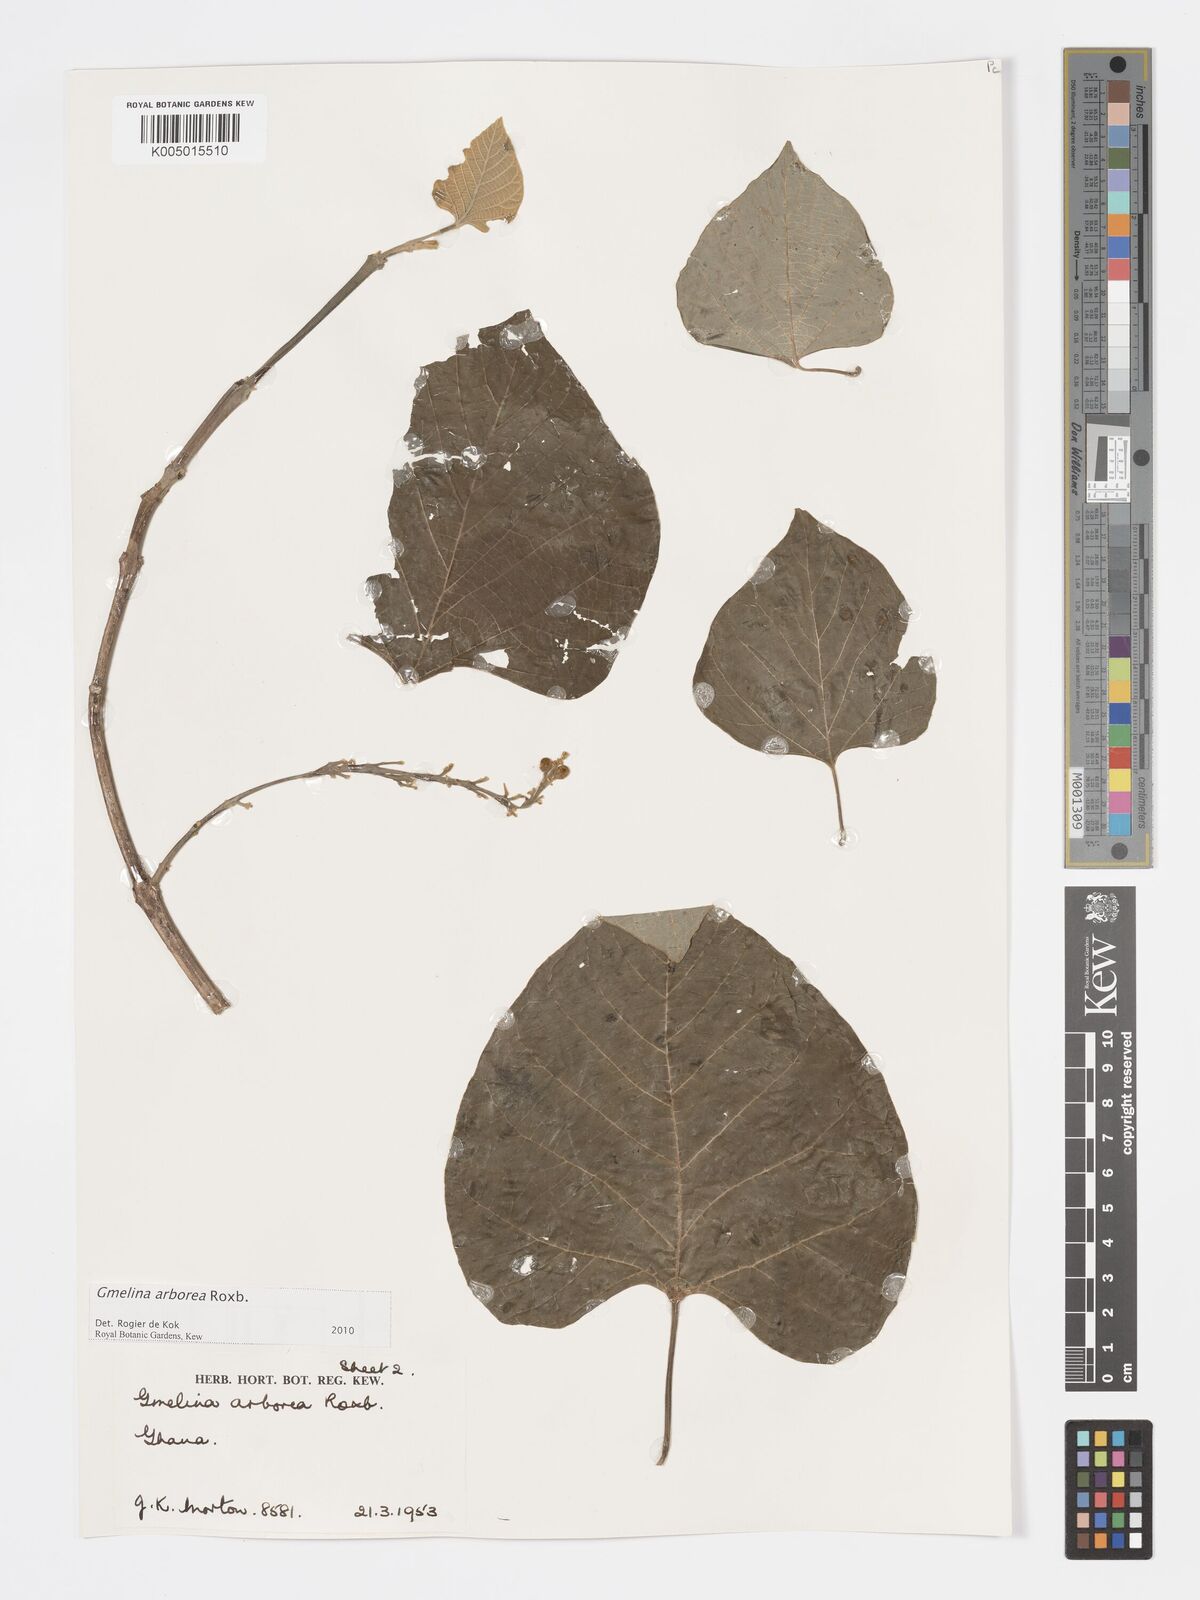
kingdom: Plantae
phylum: Tracheophyta
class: Magnoliopsida
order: Lamiales
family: Lamiaceae
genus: Gmelina
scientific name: Gmelina arborea
